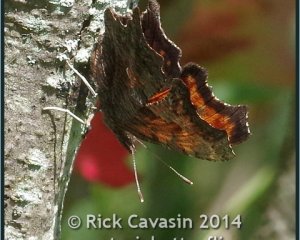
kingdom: Animalia
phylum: Arthropoda
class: Insecta
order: Lepidoptera
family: Nymphalidae
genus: Polygonia
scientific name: Polygonia progne
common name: Gray Comma
